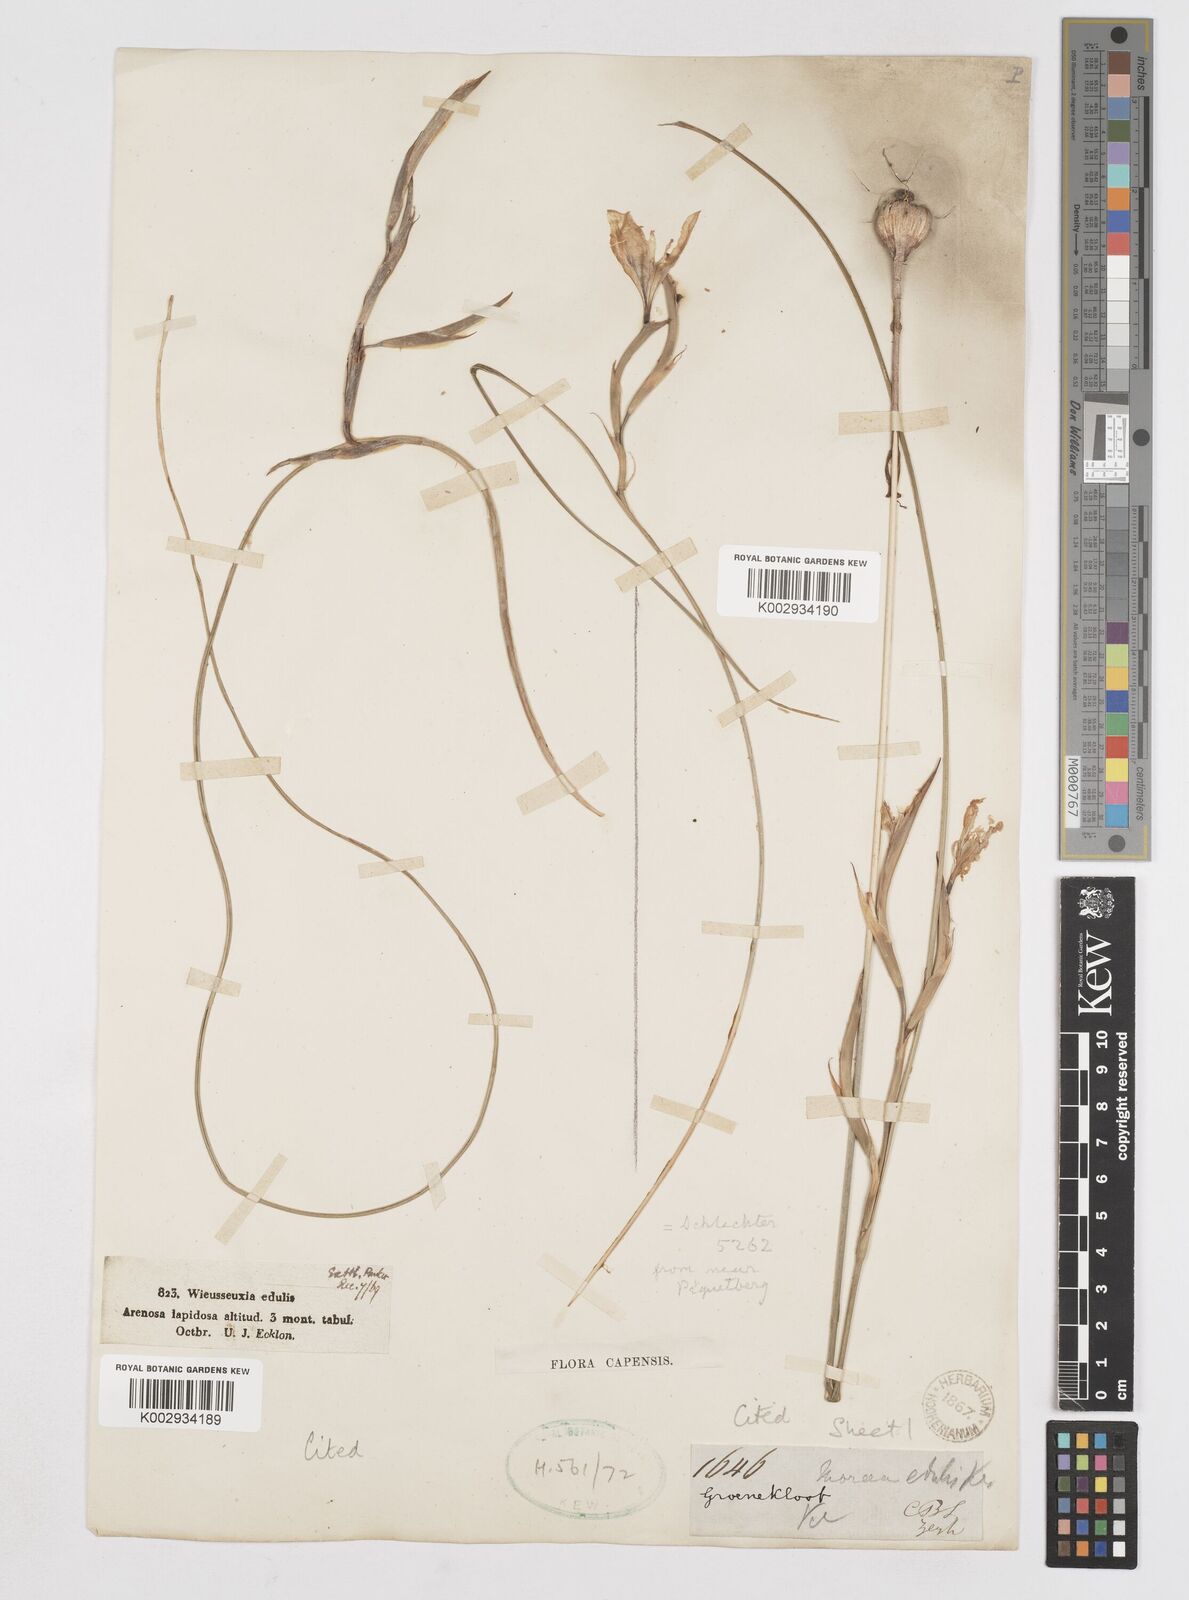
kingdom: Plantae
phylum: Tracheophyta
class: Liliopsida
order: Asparagales
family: Iridaceae
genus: Moraea
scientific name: Moraea fugax
